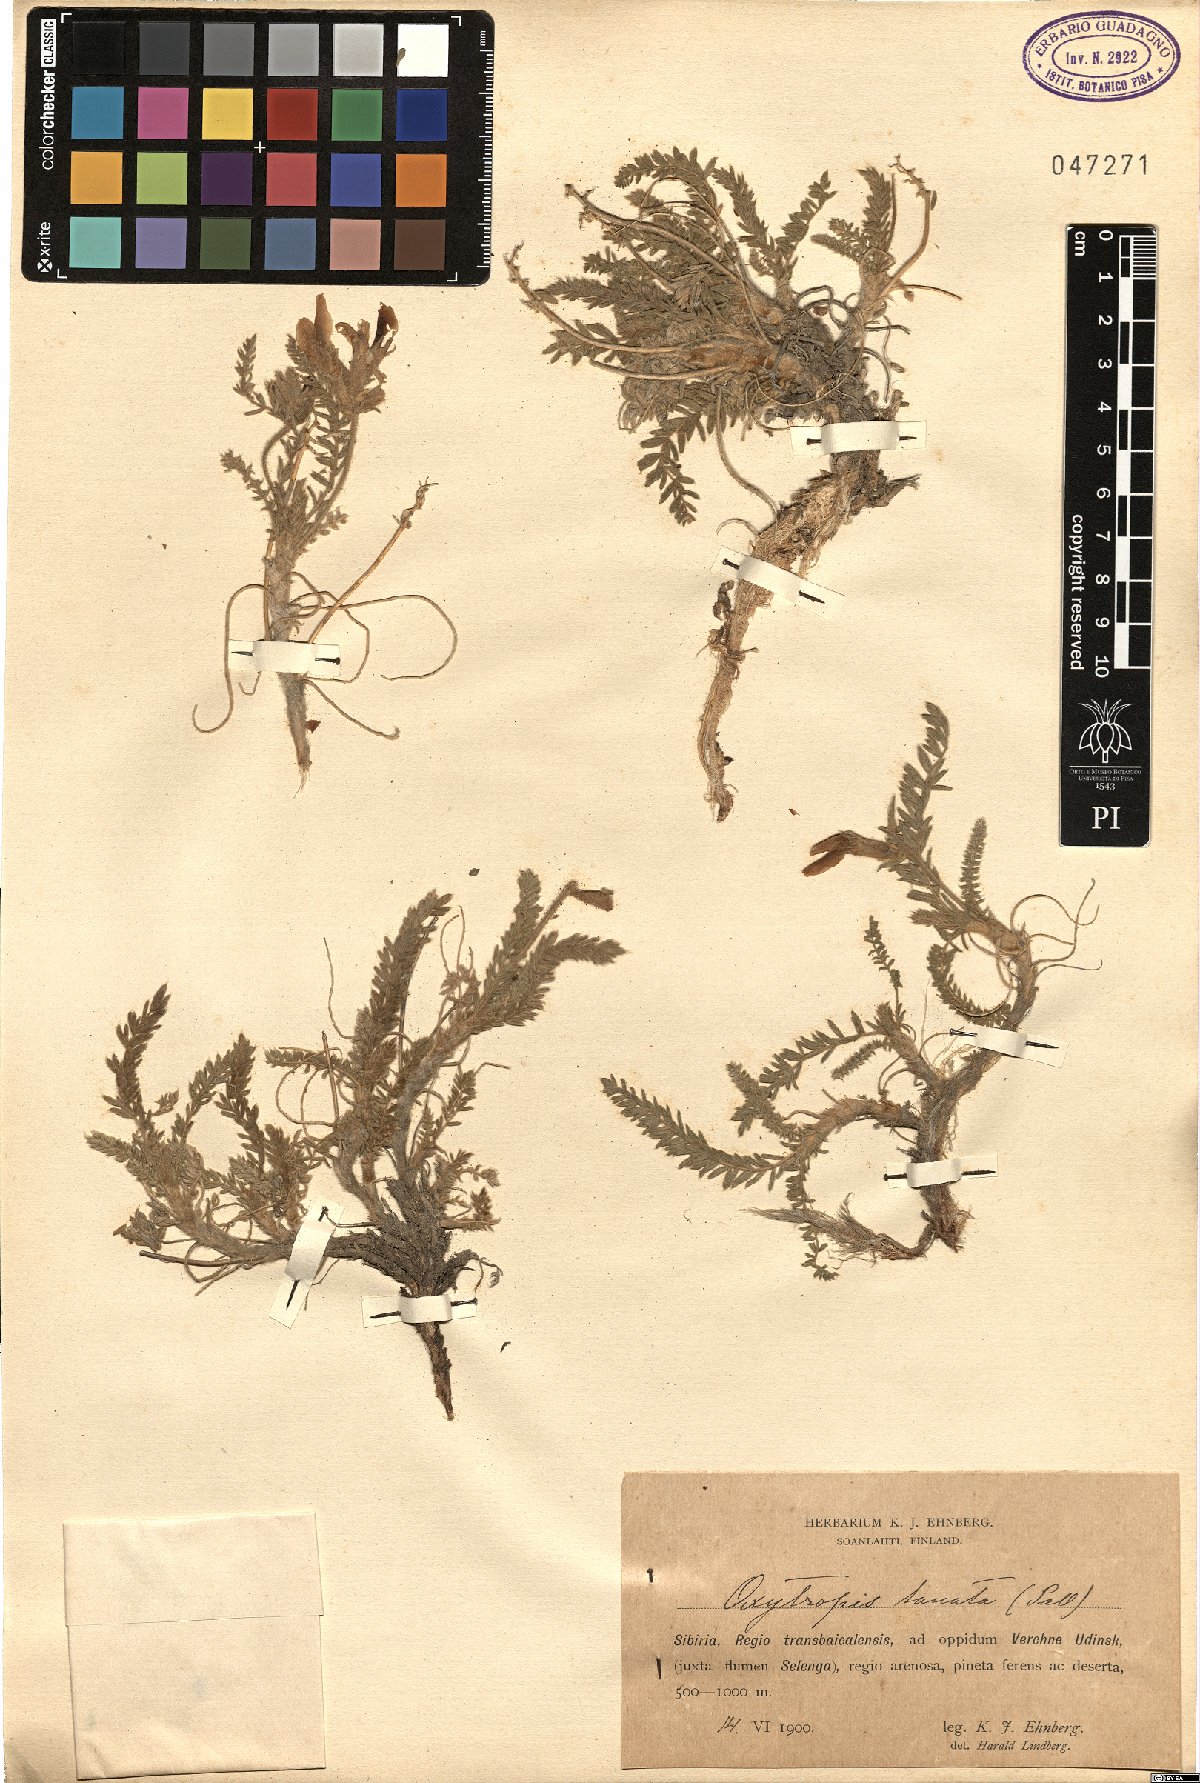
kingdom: Plantae
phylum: Tracheophyta
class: Magnoliopsida
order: Fabales
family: Fabaceae
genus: Oxytropis
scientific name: Oxytropis lanata
